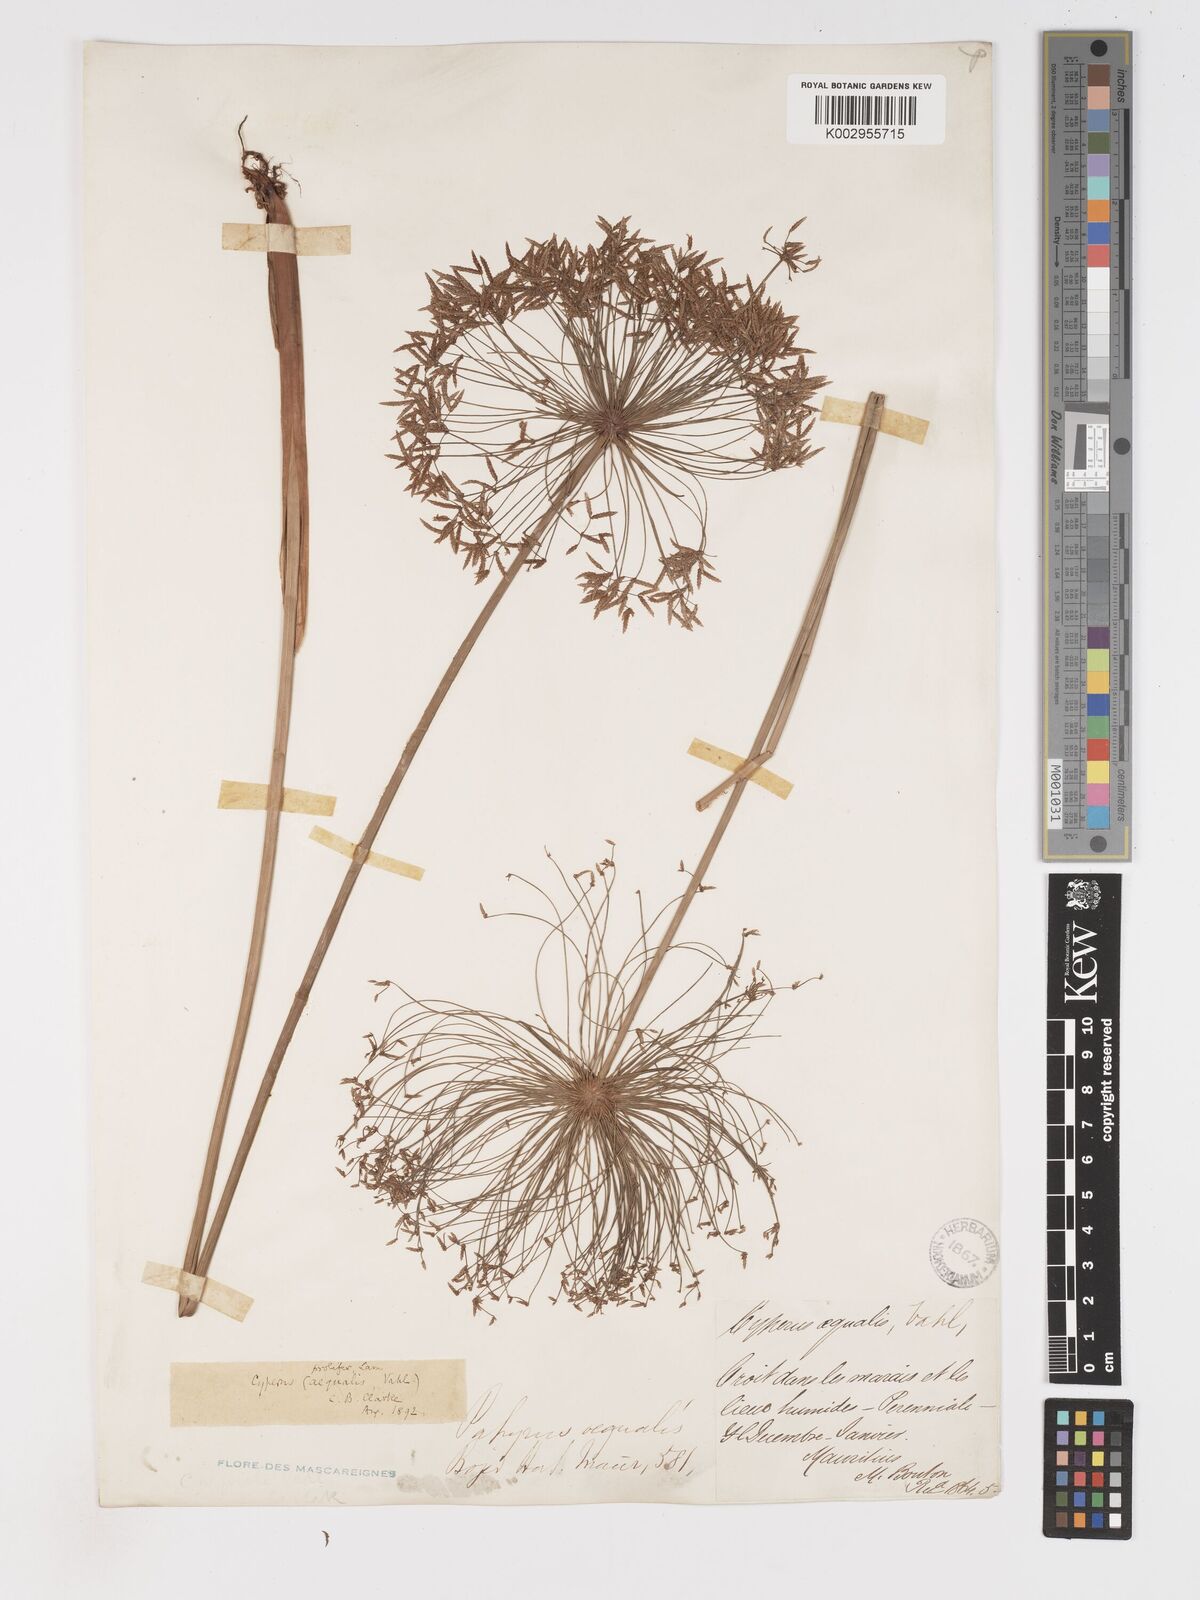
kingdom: Plantae
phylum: Tracheophyta
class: Liliopsida
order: Poales
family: Cyperaceae
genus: Cyperus
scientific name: Cyperus prolifer
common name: Miniature flatsedge
